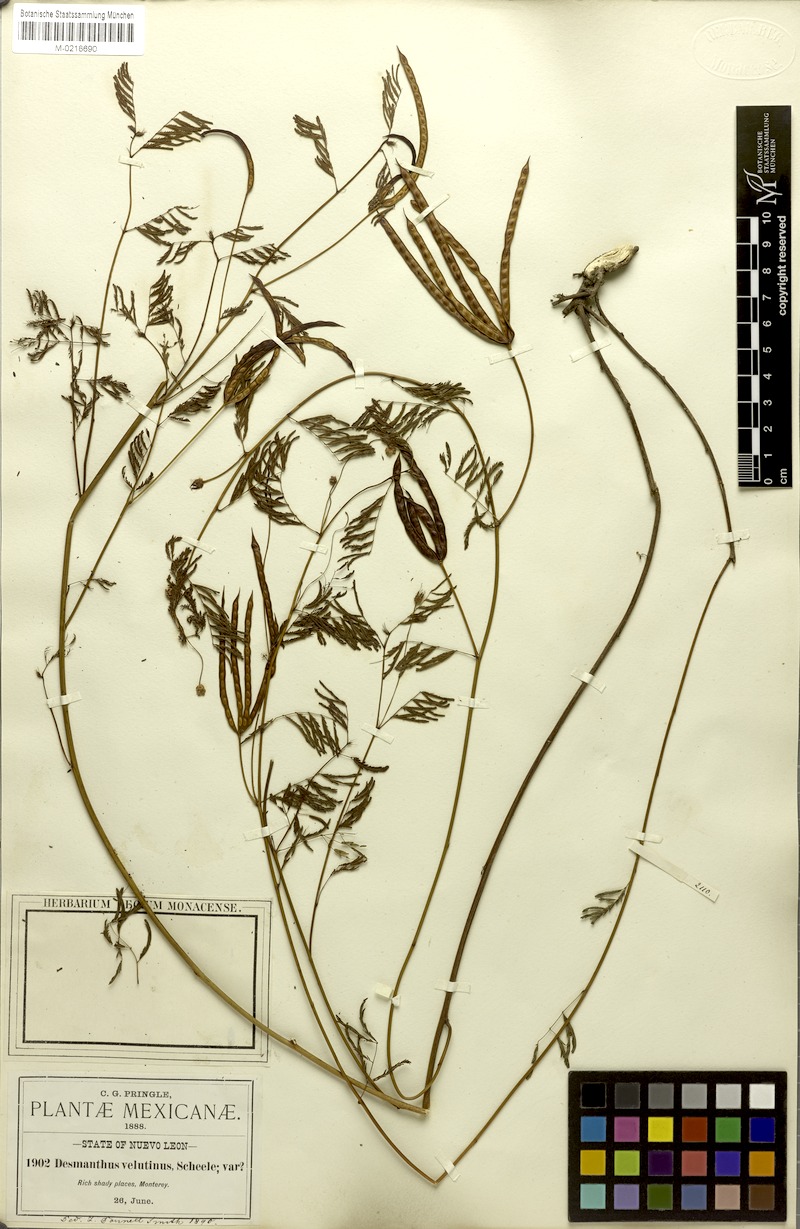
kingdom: Plantae
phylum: Tracheophyta
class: Magnoliopsida
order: Fabales
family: Fabaceae
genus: Desmanthus
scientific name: Desmanthus pringlei
